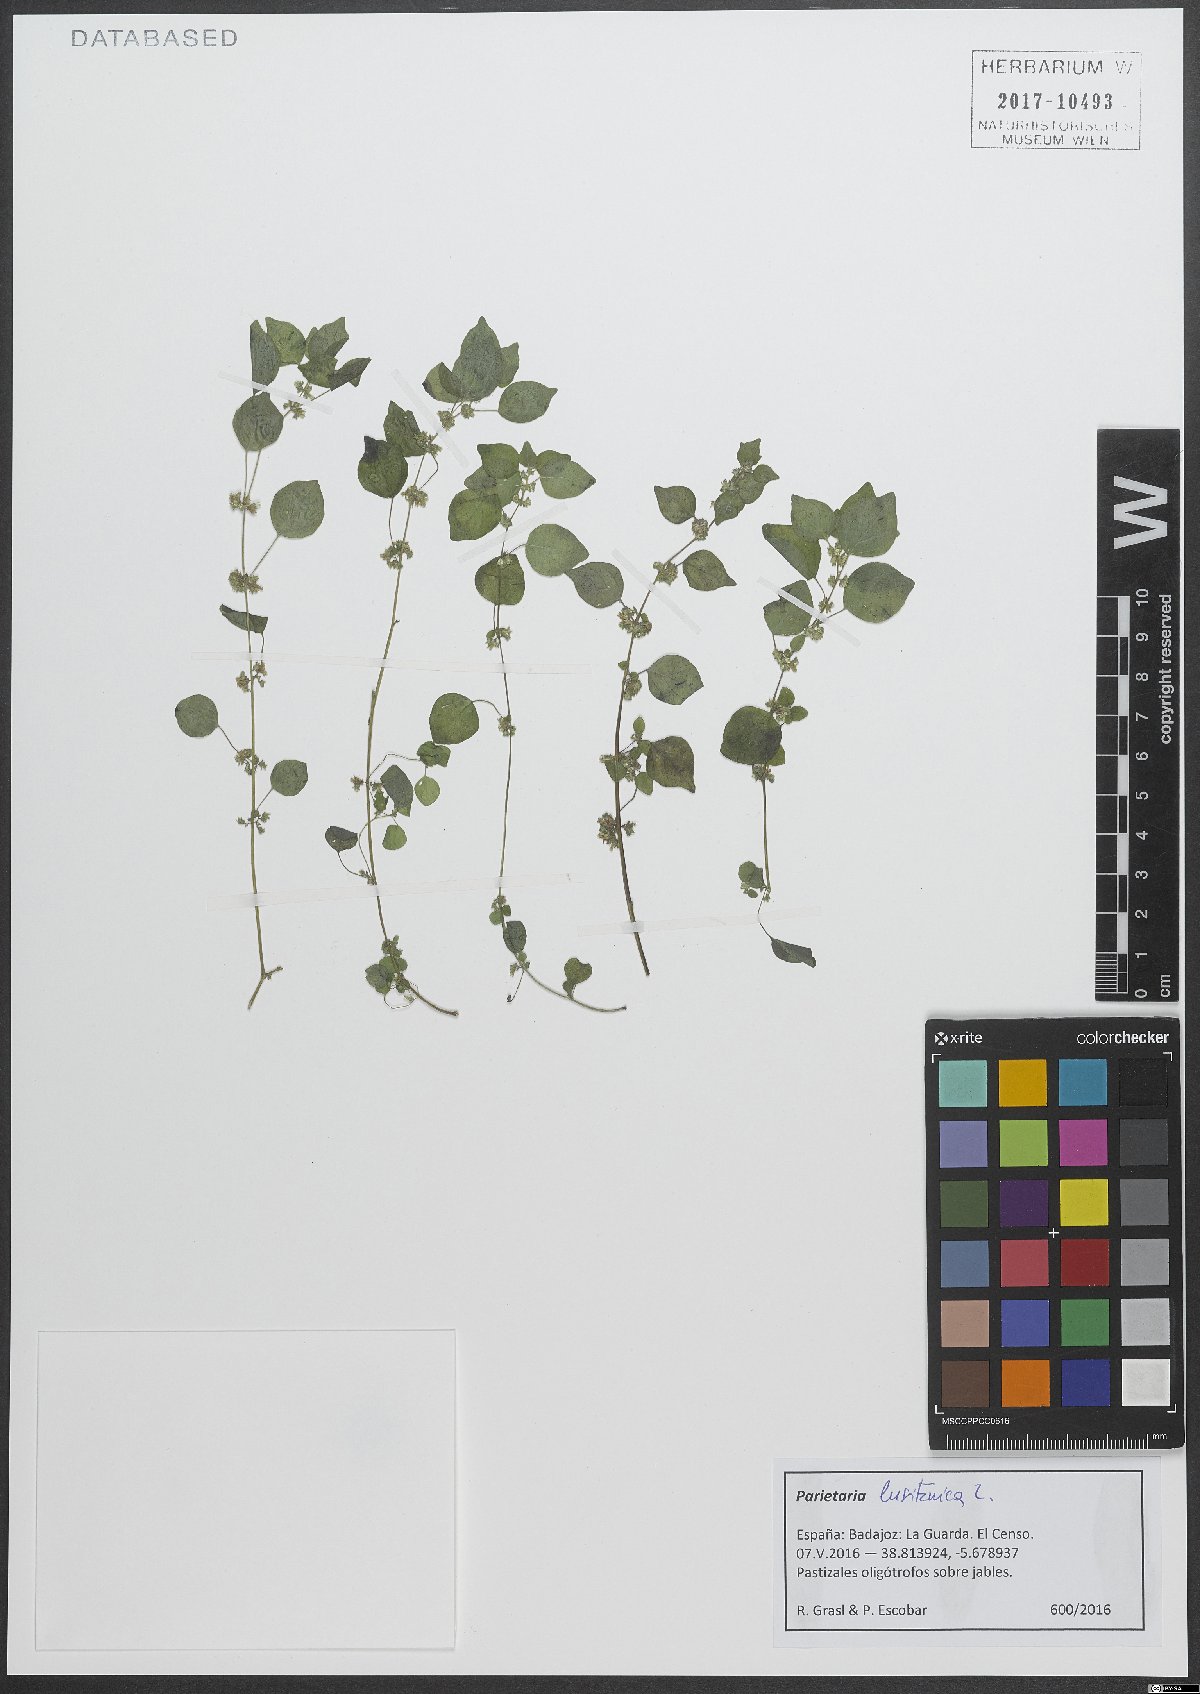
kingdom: Plantae
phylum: Tracheophyta
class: Magnoliopsida
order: Rosales
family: Urticaceae
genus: Parietaria
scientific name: Parietaria lusitanica
